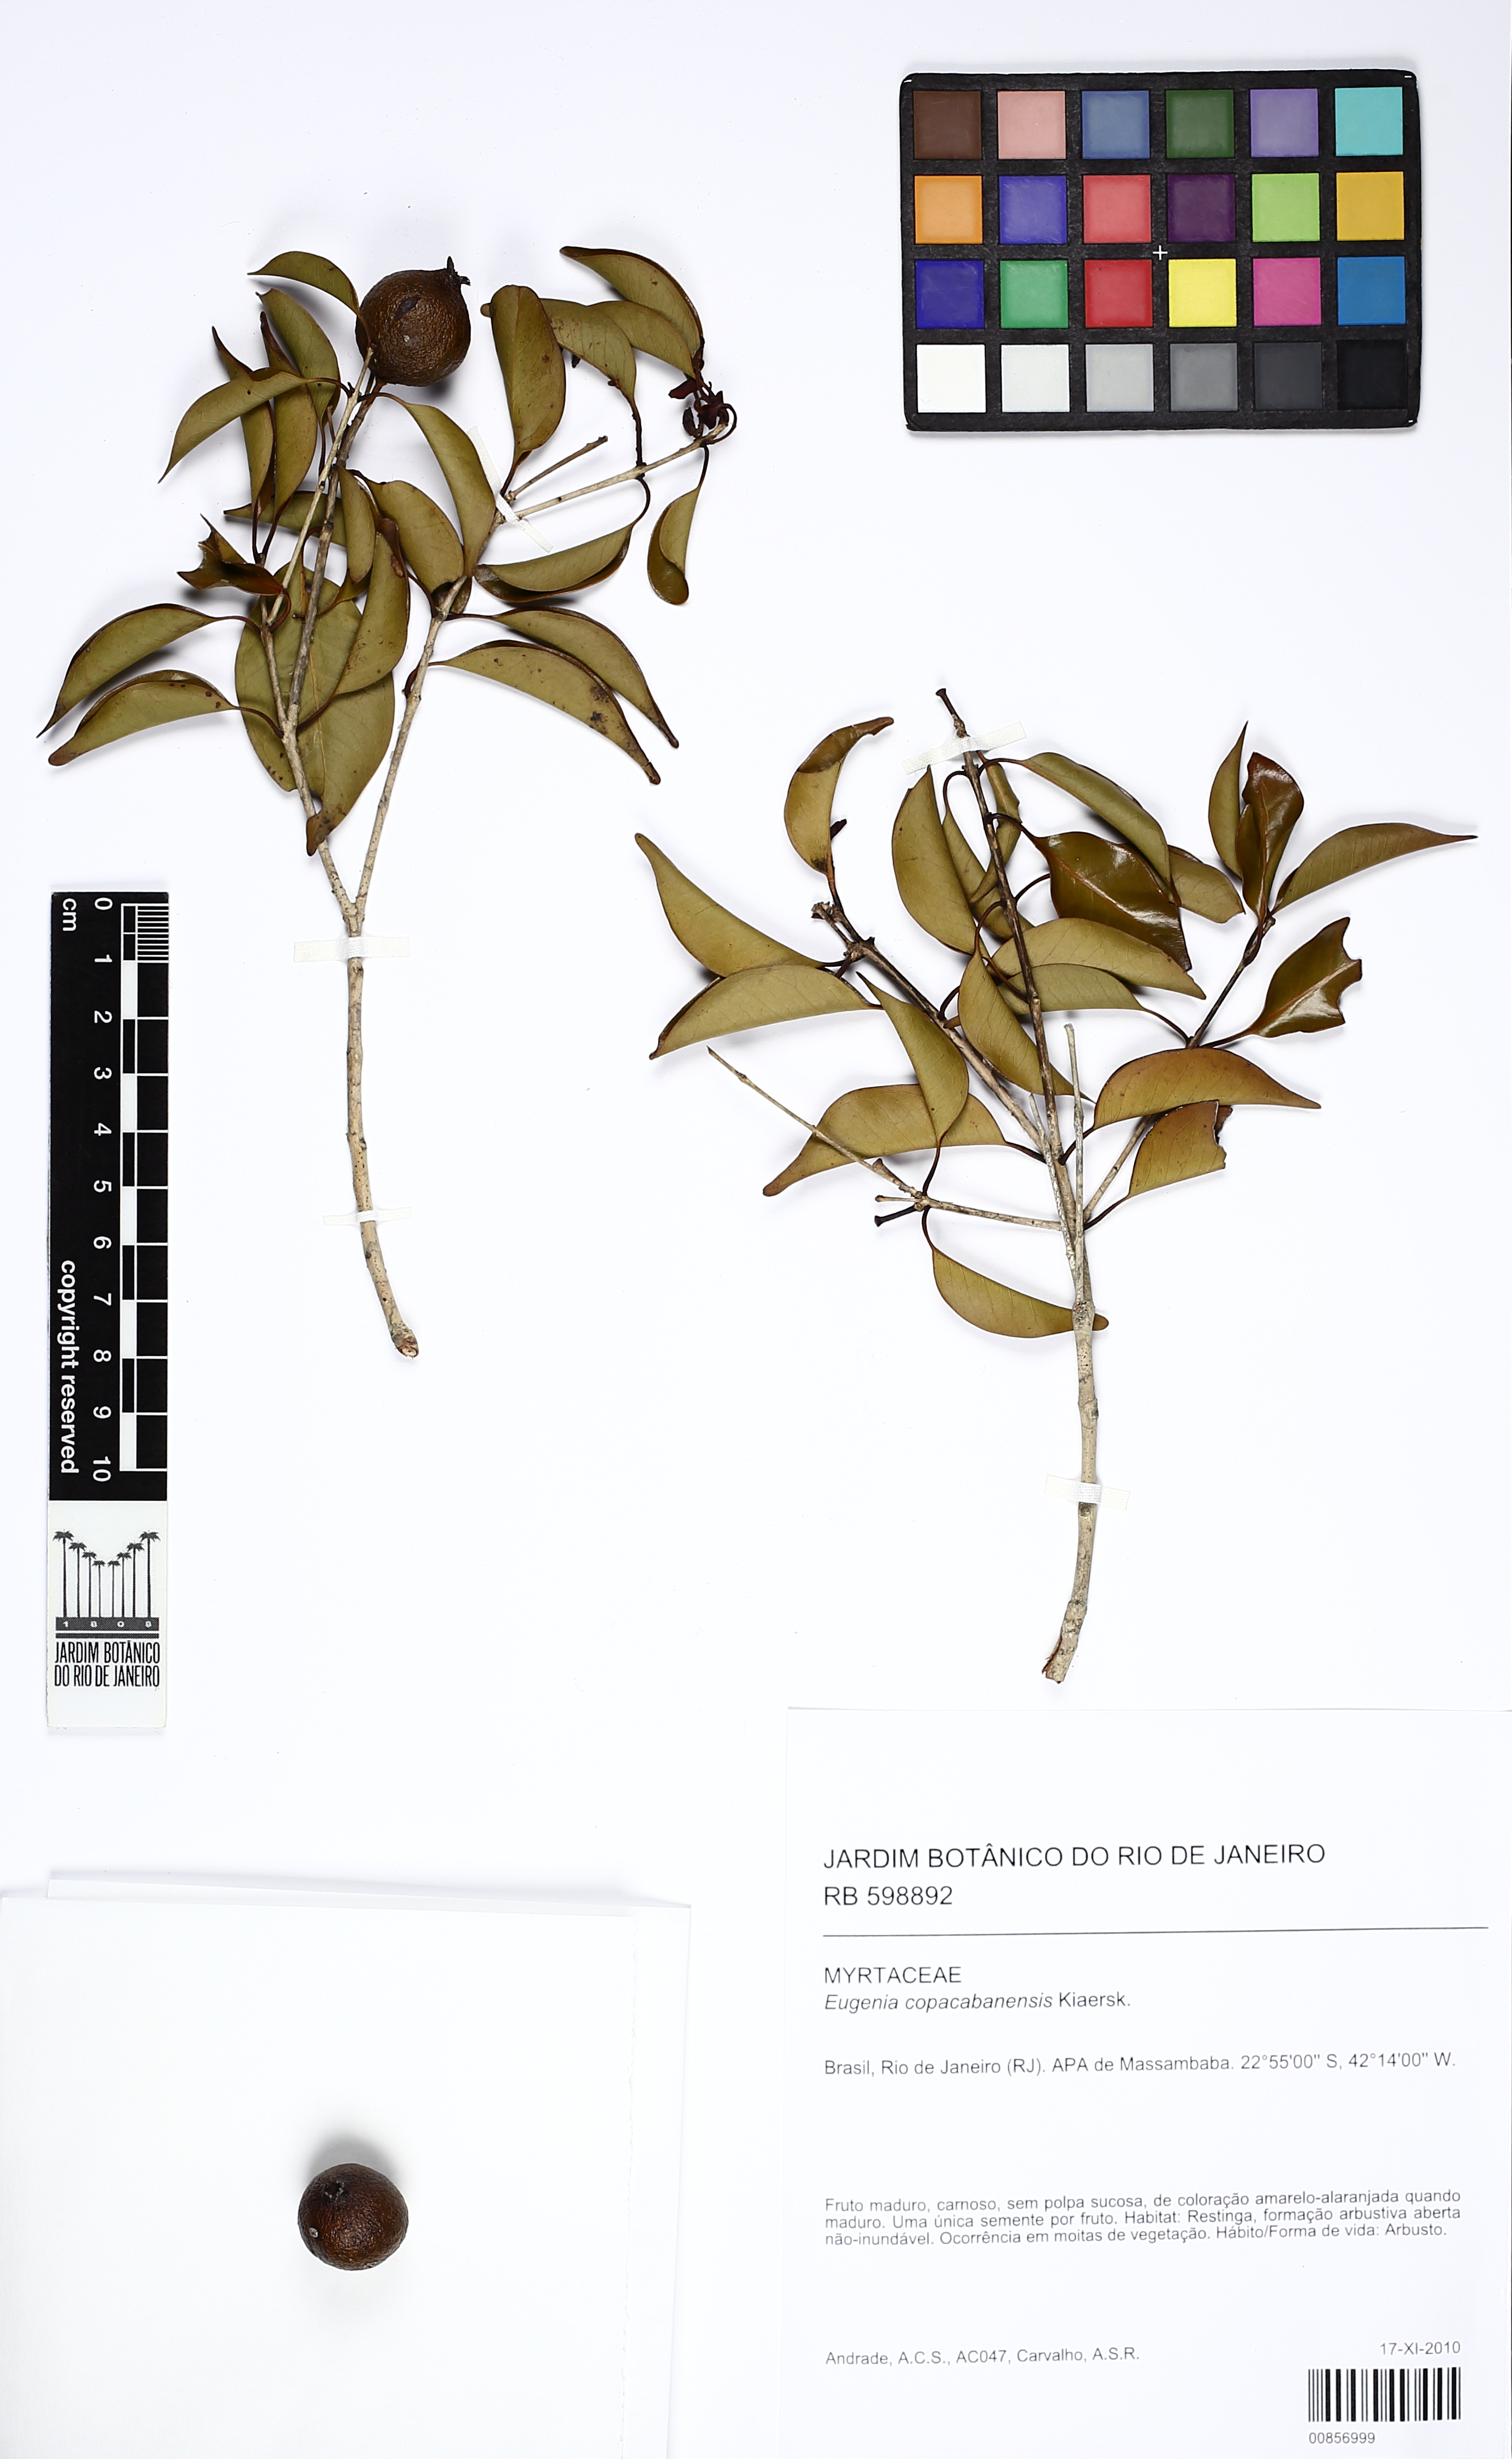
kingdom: Plantae
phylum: Tracheophyta
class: Magnoliopsida
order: Myrtales
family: Myrtaceae
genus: Eugenia
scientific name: Eugenia copacabanensis
